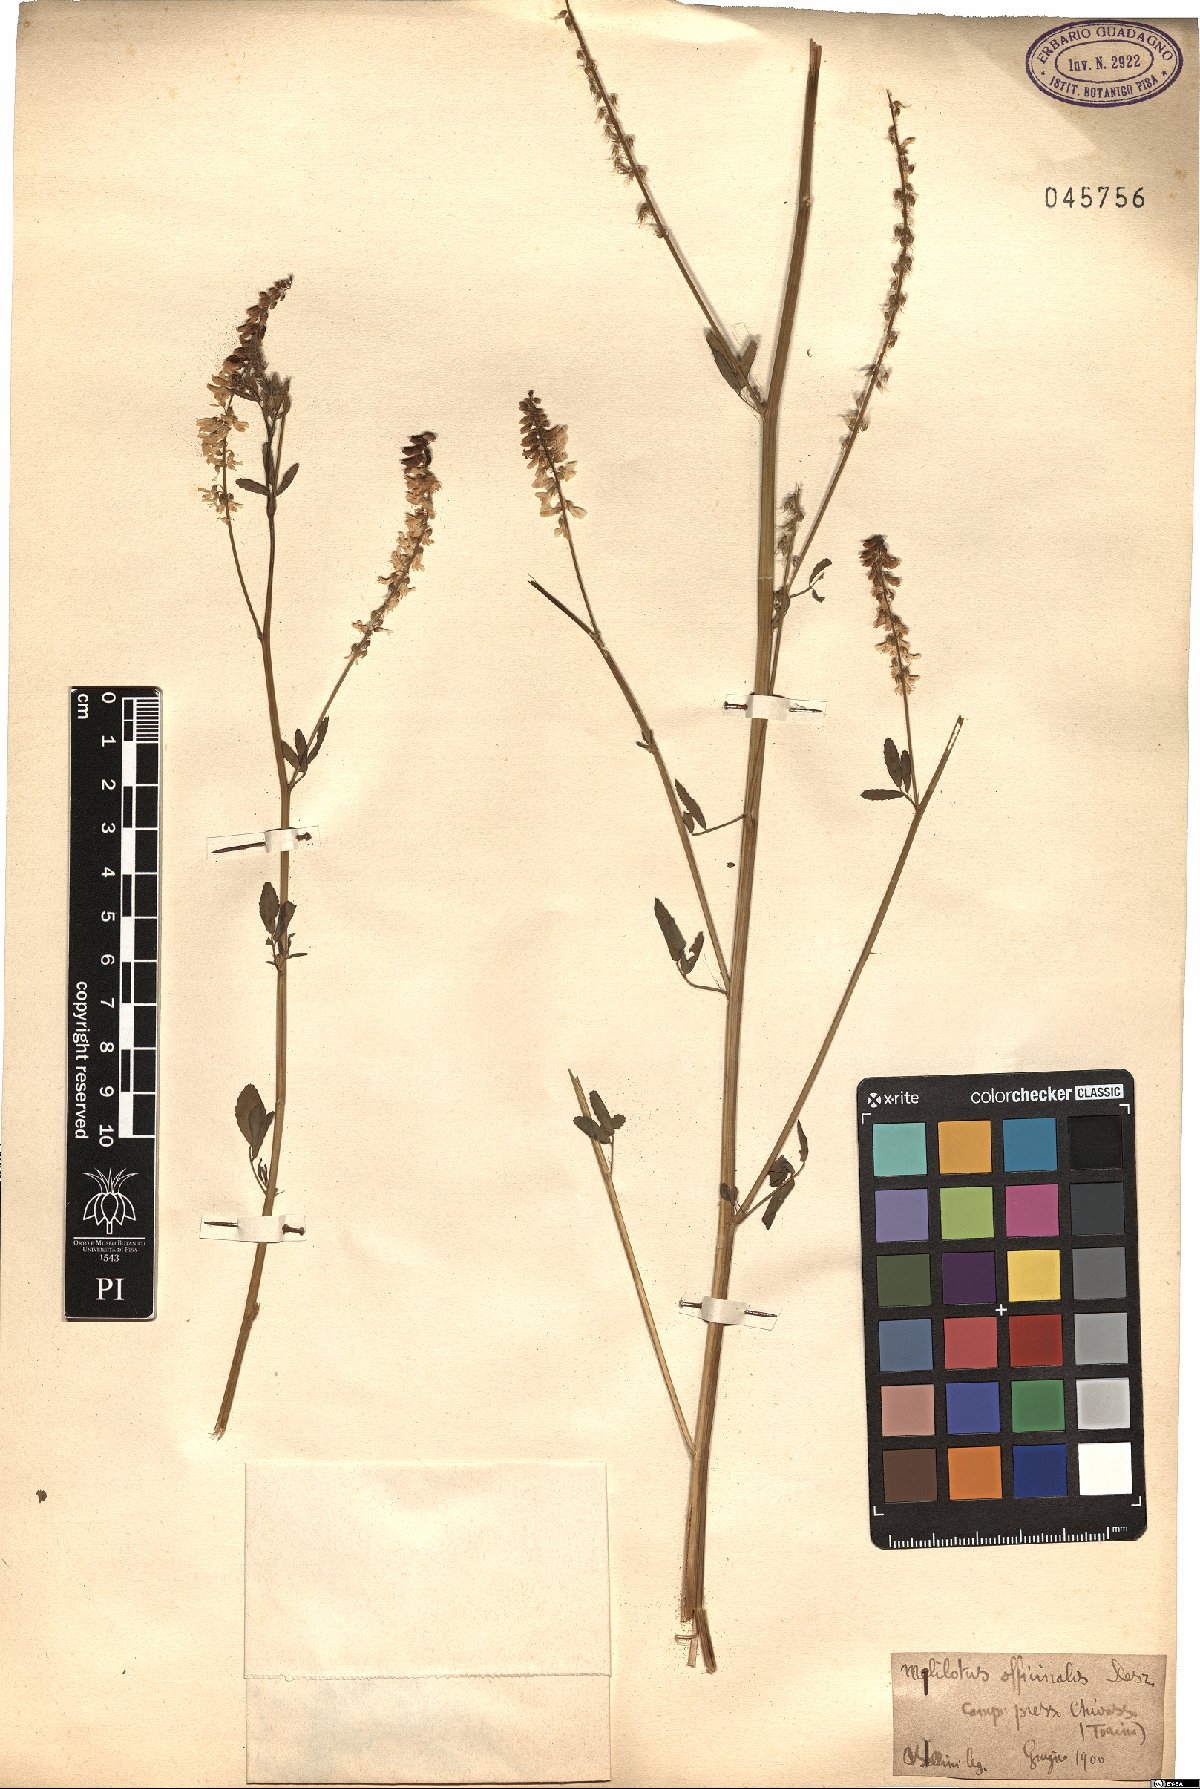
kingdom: Plantae
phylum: Tracheophyta
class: Magnoliopsida
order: Fabales
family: Fabaceae
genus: Melilotus
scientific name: Melilotus officinalis
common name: Sweetclover
